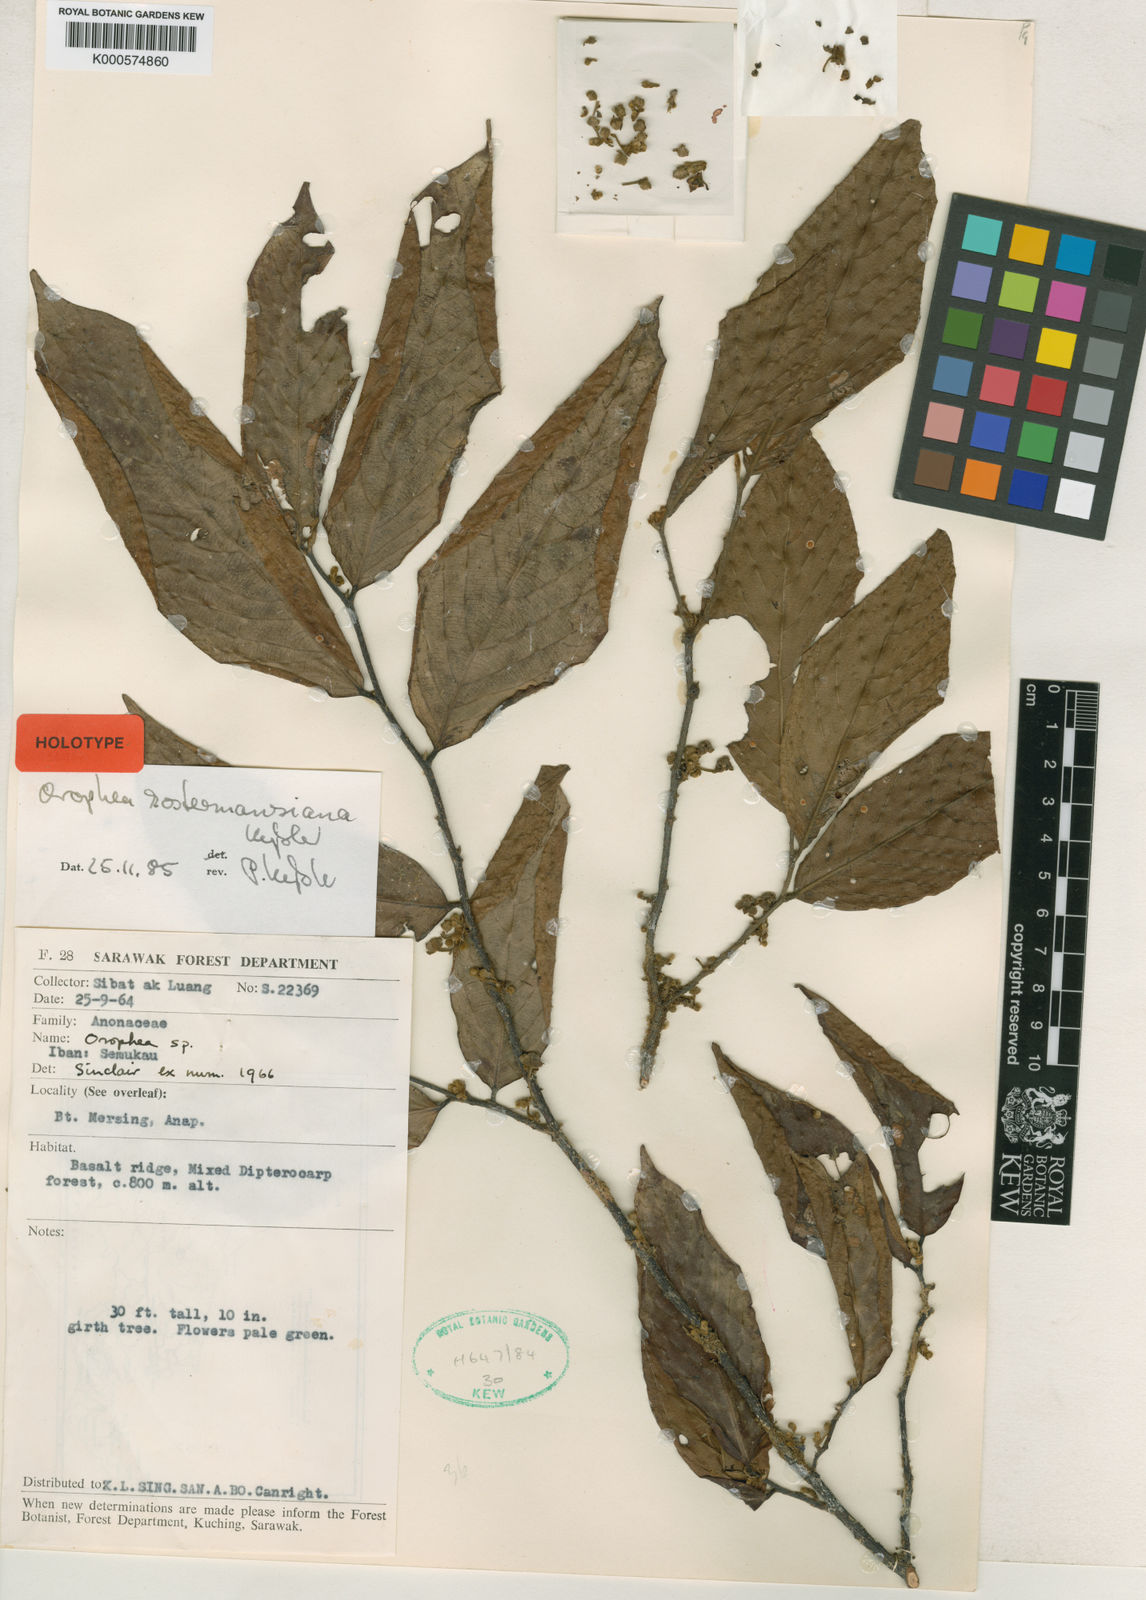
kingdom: Plantae
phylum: Tracheophyta
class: Magnoliopsida
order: Magnoliales
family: Annonaceae
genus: Orophea
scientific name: Orophea kostermansiana
